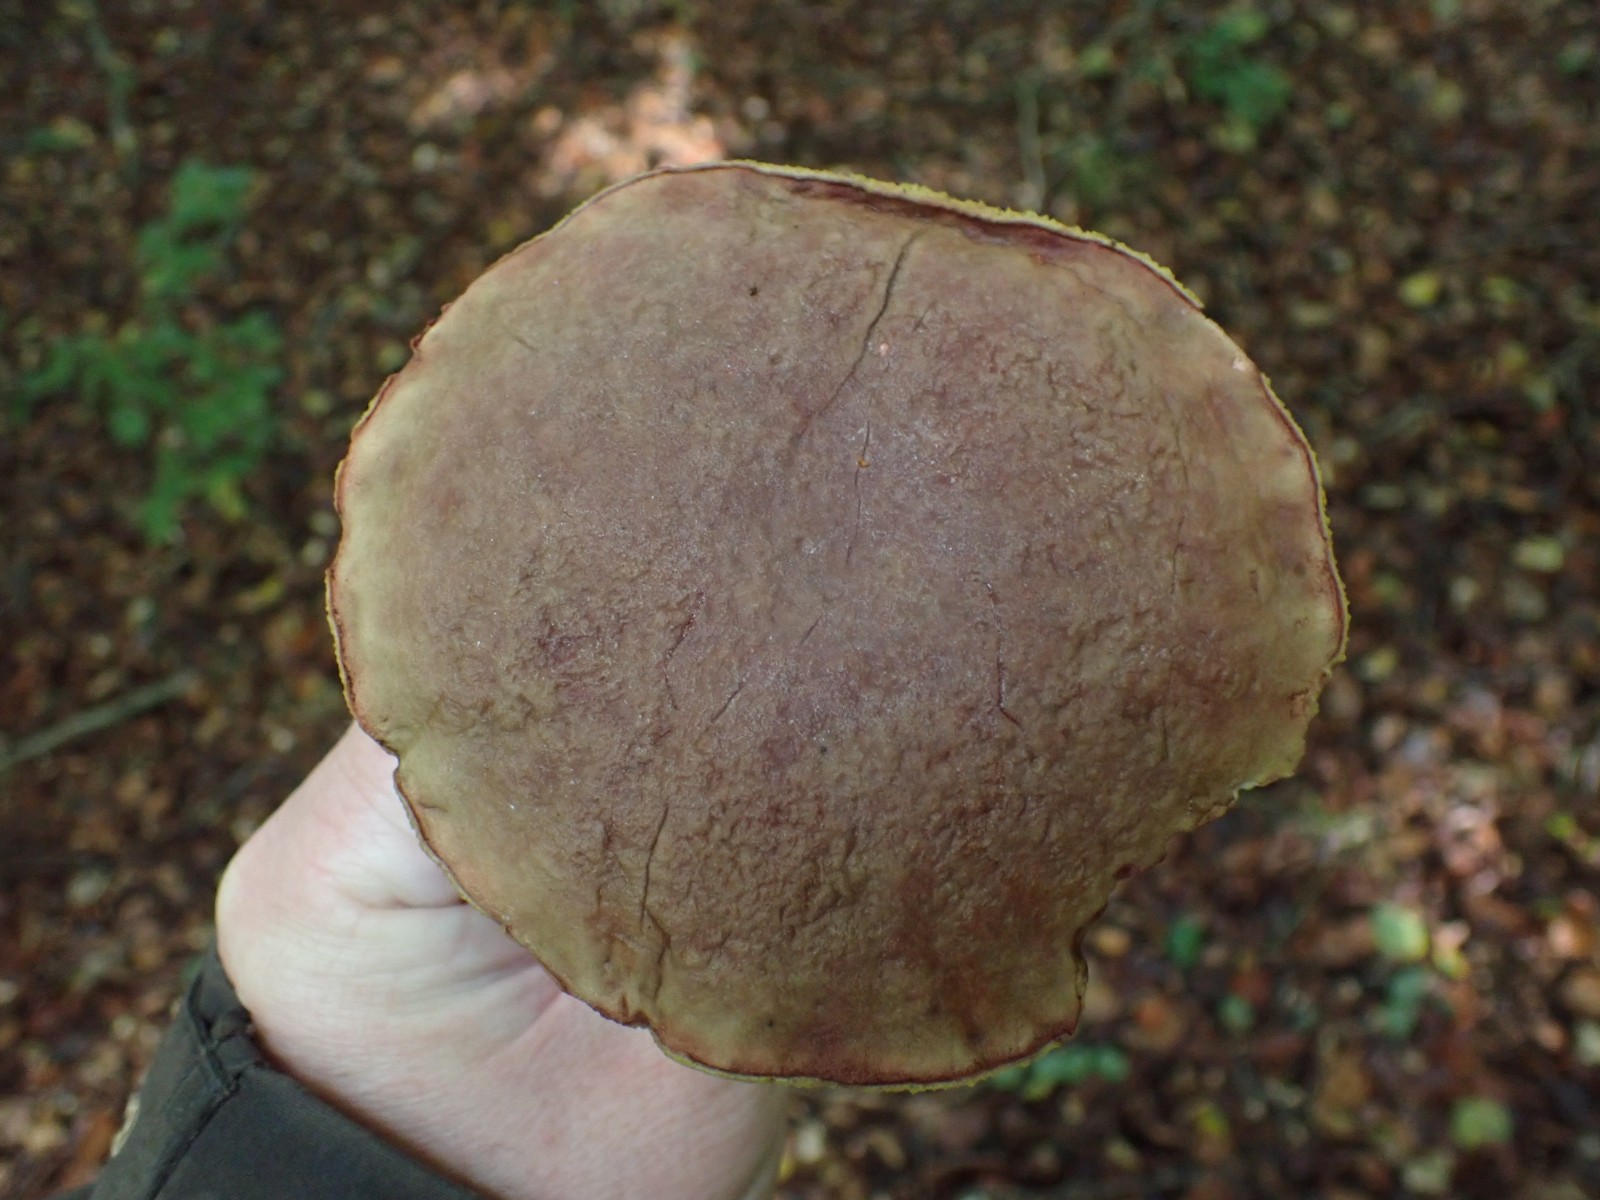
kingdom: Fungi
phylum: Basidiomycota
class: Agaricomycetes
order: Boletales
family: Boletaceae
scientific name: Boletaceae
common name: rørhatfamilien
